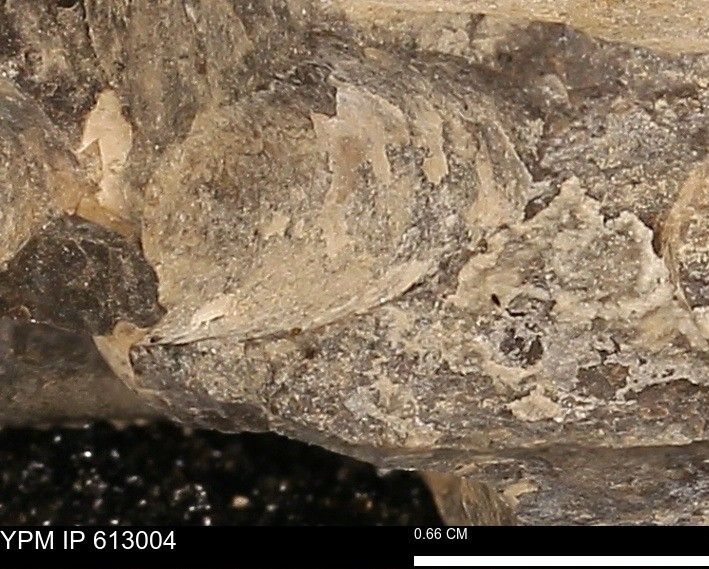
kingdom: Animalia
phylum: Mollusca
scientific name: Mollusca
